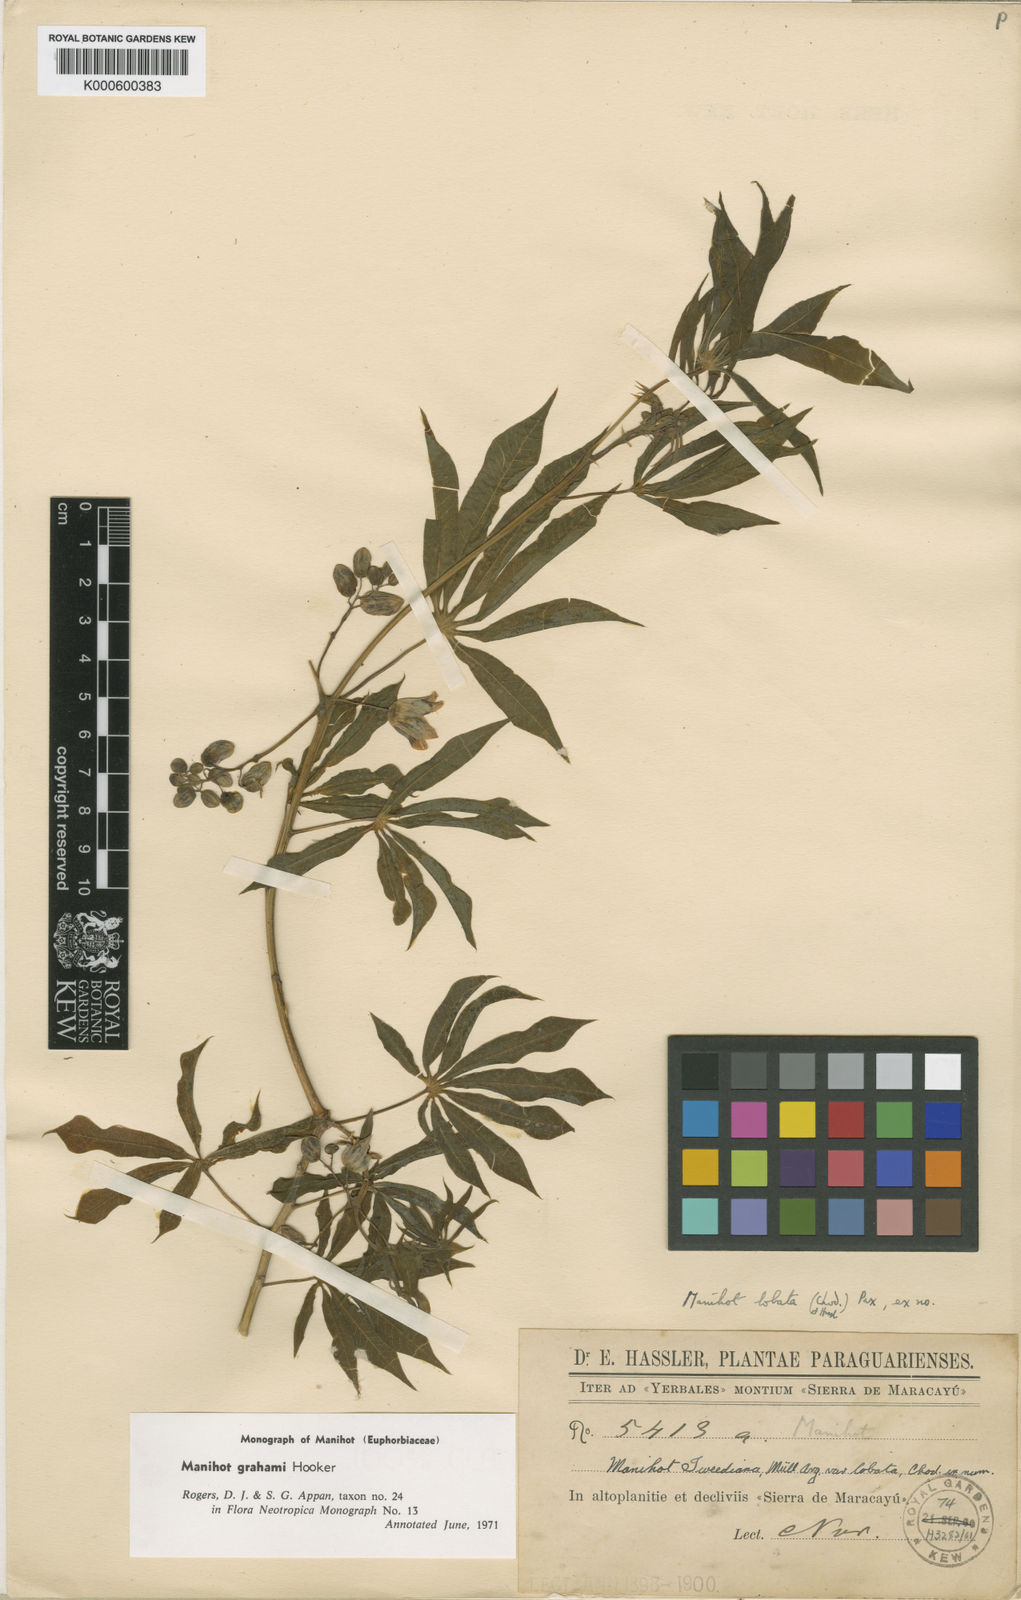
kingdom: Plantae
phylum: Tracheophyta
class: Magnoliopsida
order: Malpighiales
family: Euphorbiaceae
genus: Manihot
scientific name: Manihot grahamii
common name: Graham's manihot
